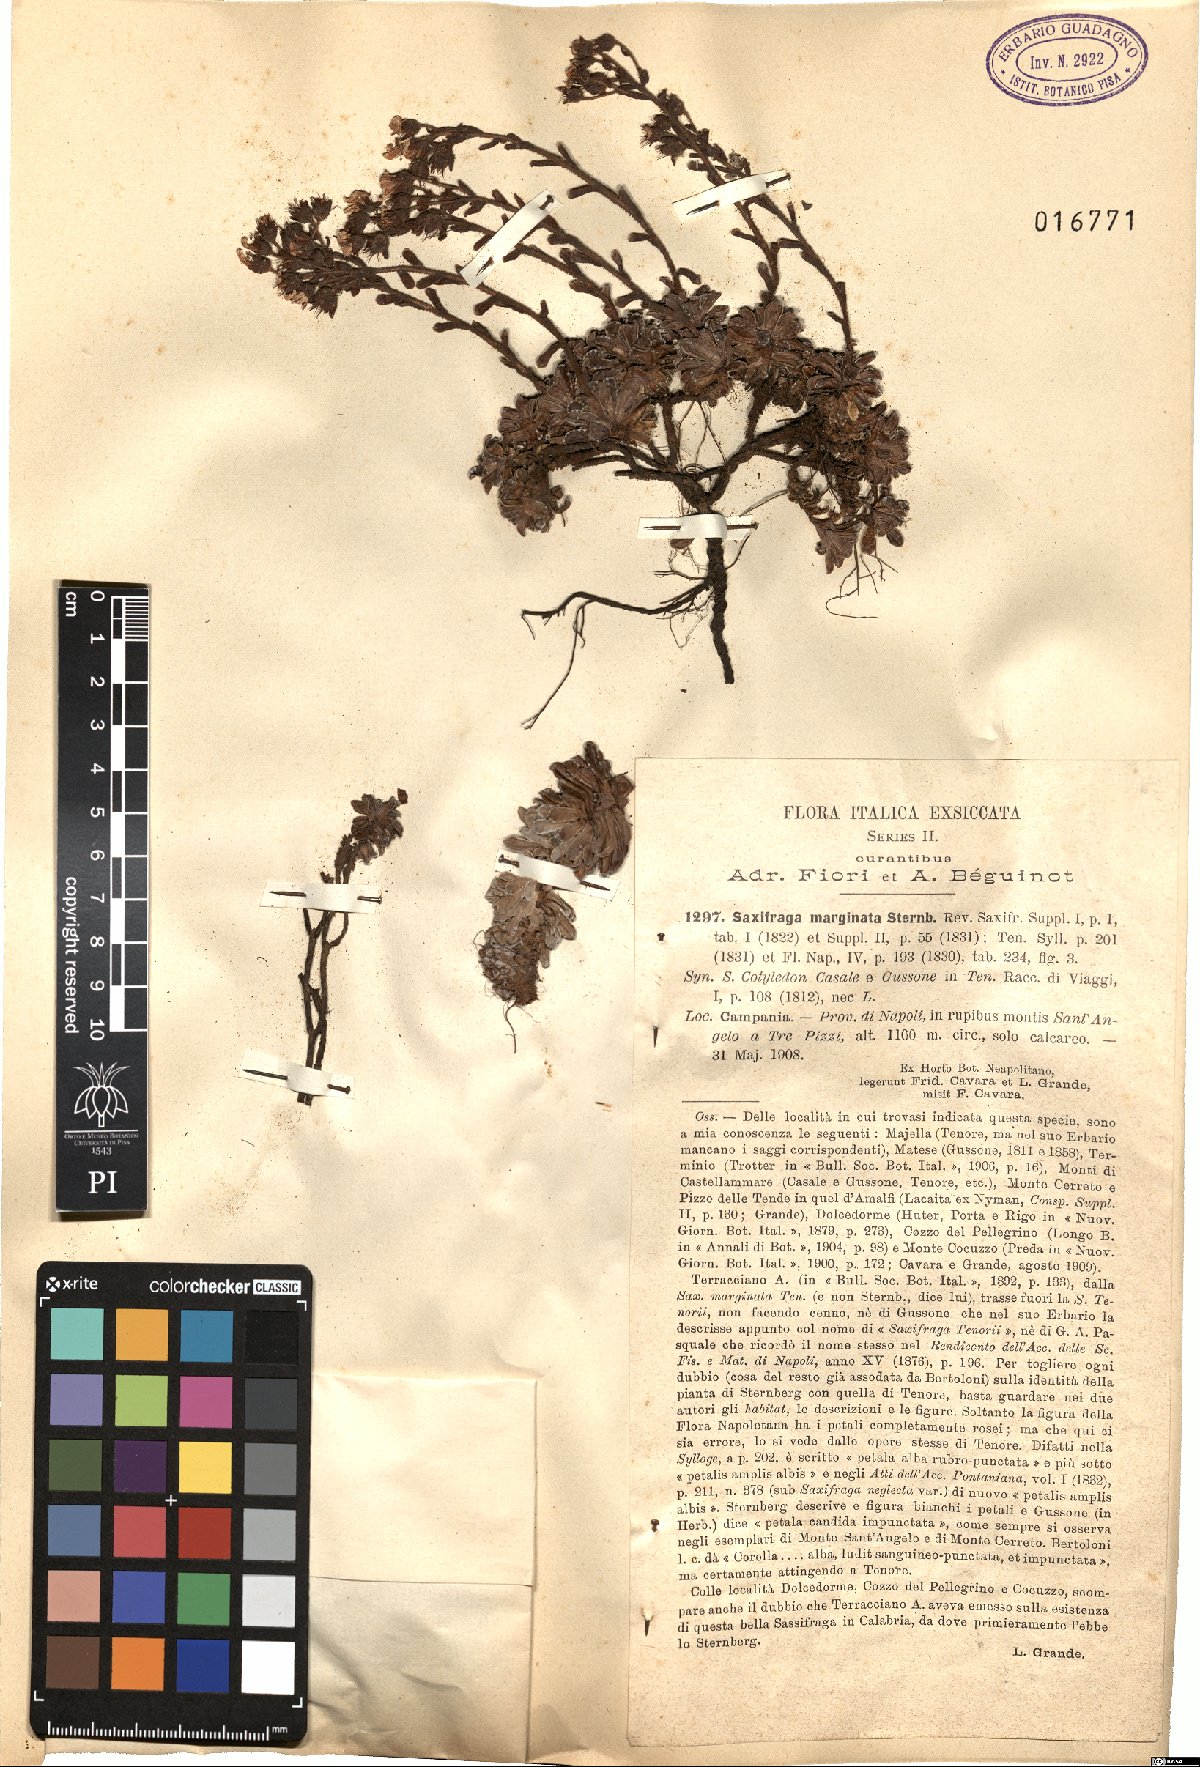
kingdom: Plantae
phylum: Tracheophyta
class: Magnoliopsida
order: Saxifragales
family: Saxifragaceae
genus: Saxifraga
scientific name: Saxifraga marginata
